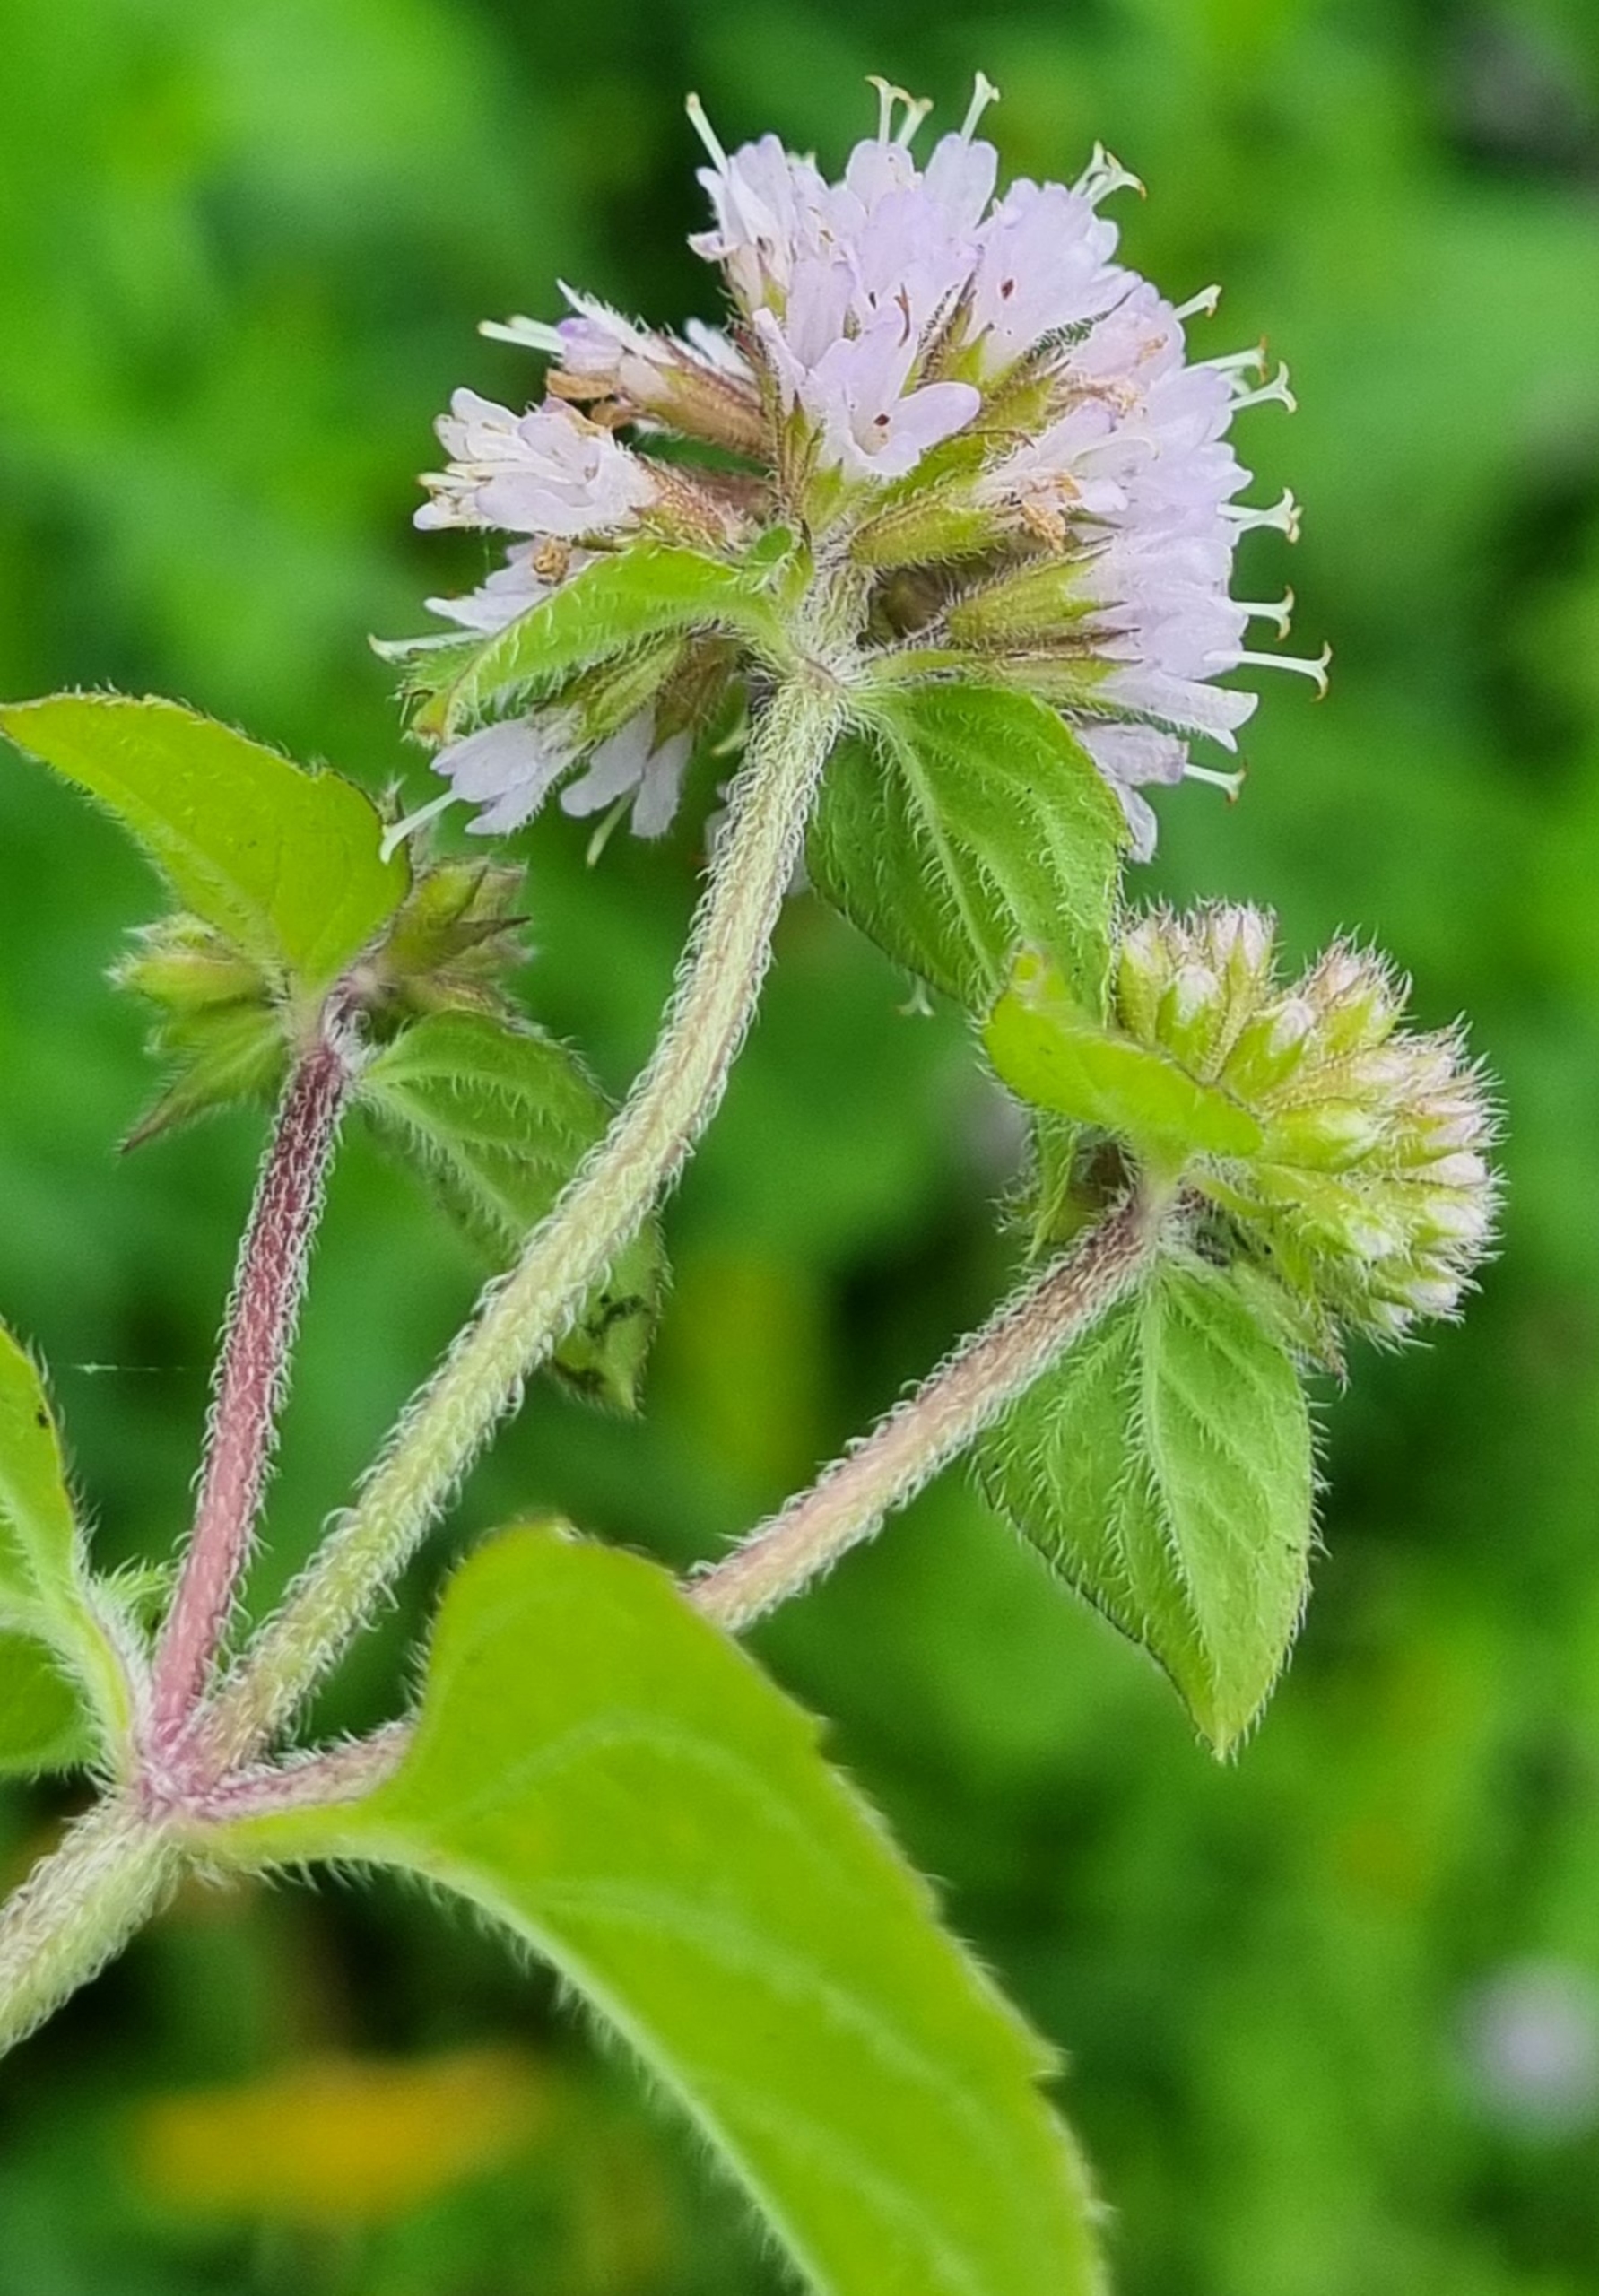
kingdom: Plantae
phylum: Tracheophyta
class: Magnoliopsida
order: Lamiales
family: Lamiaceae
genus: Mentha
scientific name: Mentha aquatica
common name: Vand-mynte
